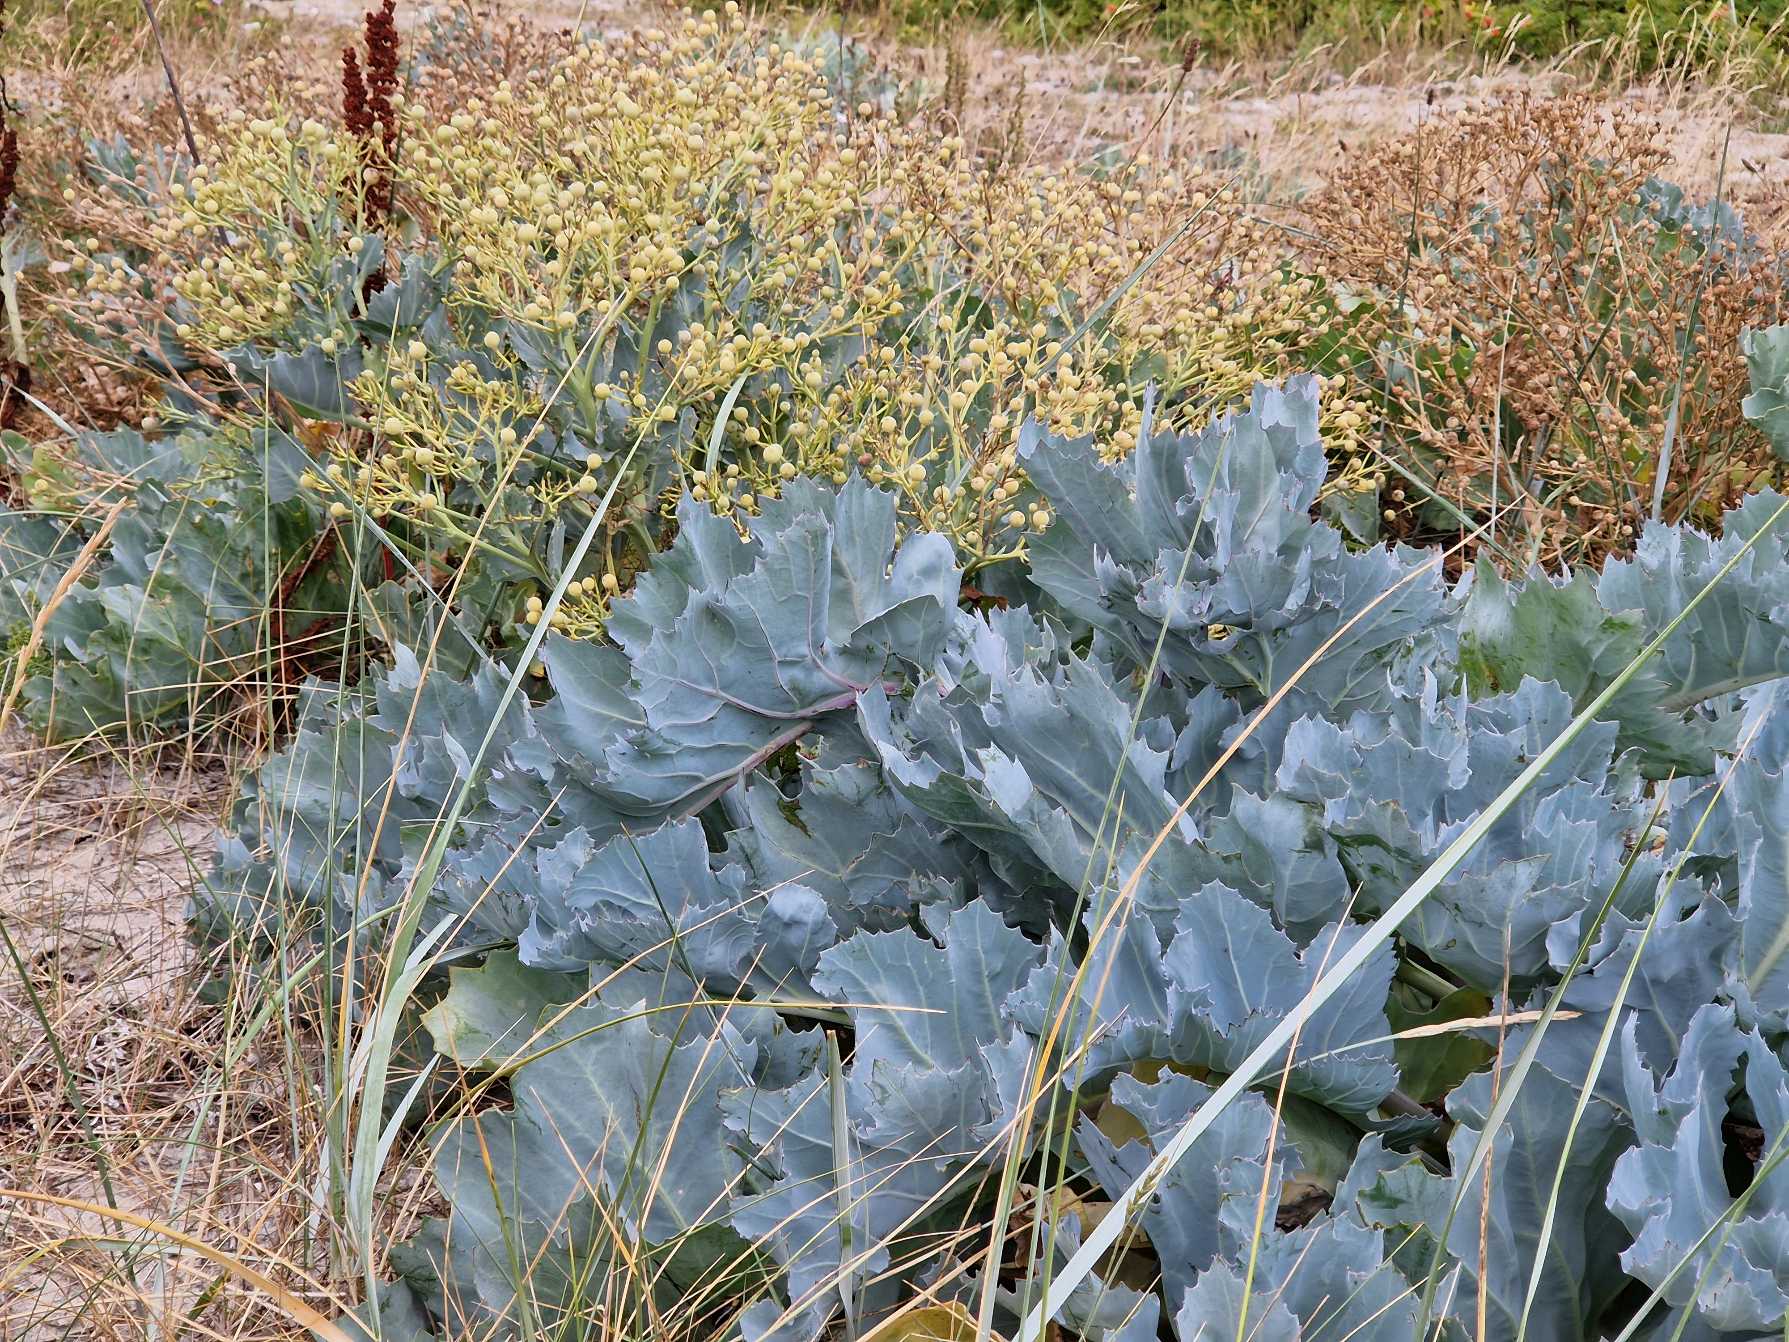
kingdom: Plantae
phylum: Tracheophyta
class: Magnoliopsida
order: Brassicales
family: Brassicaceae
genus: Crambe
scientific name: Crambe maritima
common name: Strandkål
